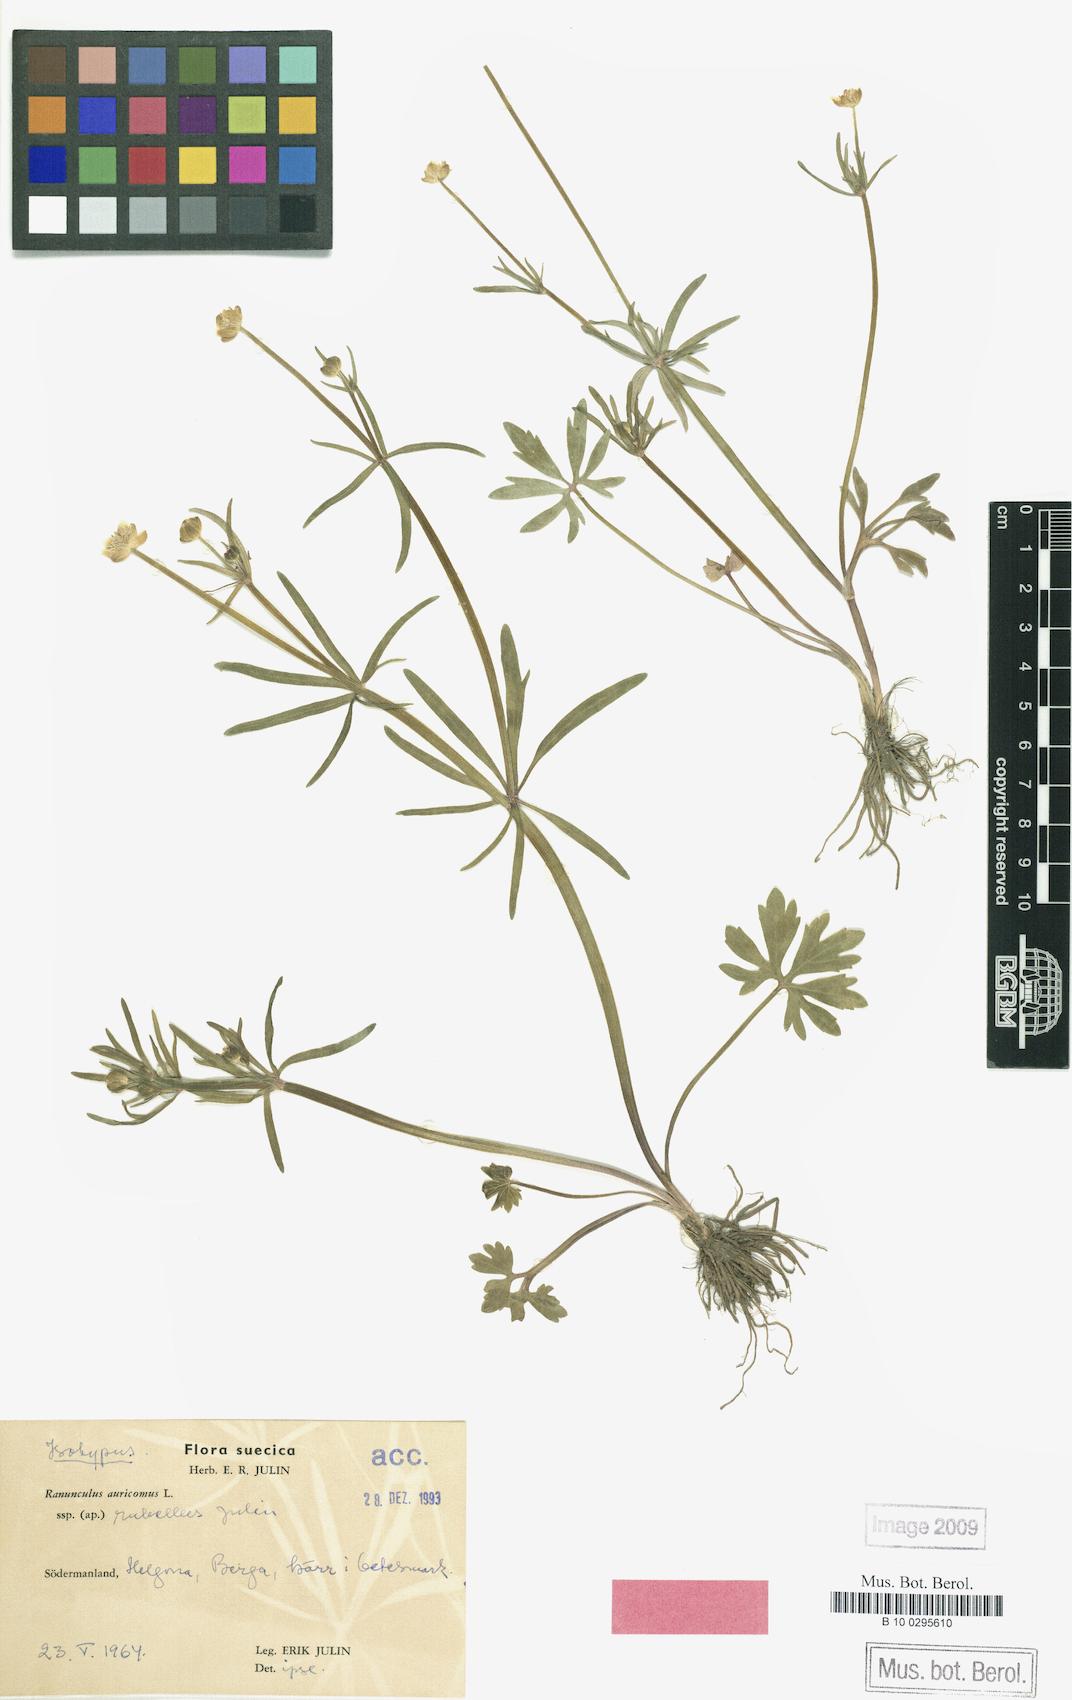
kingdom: Plantae
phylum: Tracheophyta
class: Magnoliopsida
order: Ranunculales
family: Ranunculaceae
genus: Ranunculus
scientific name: Ranunculus rubellus
